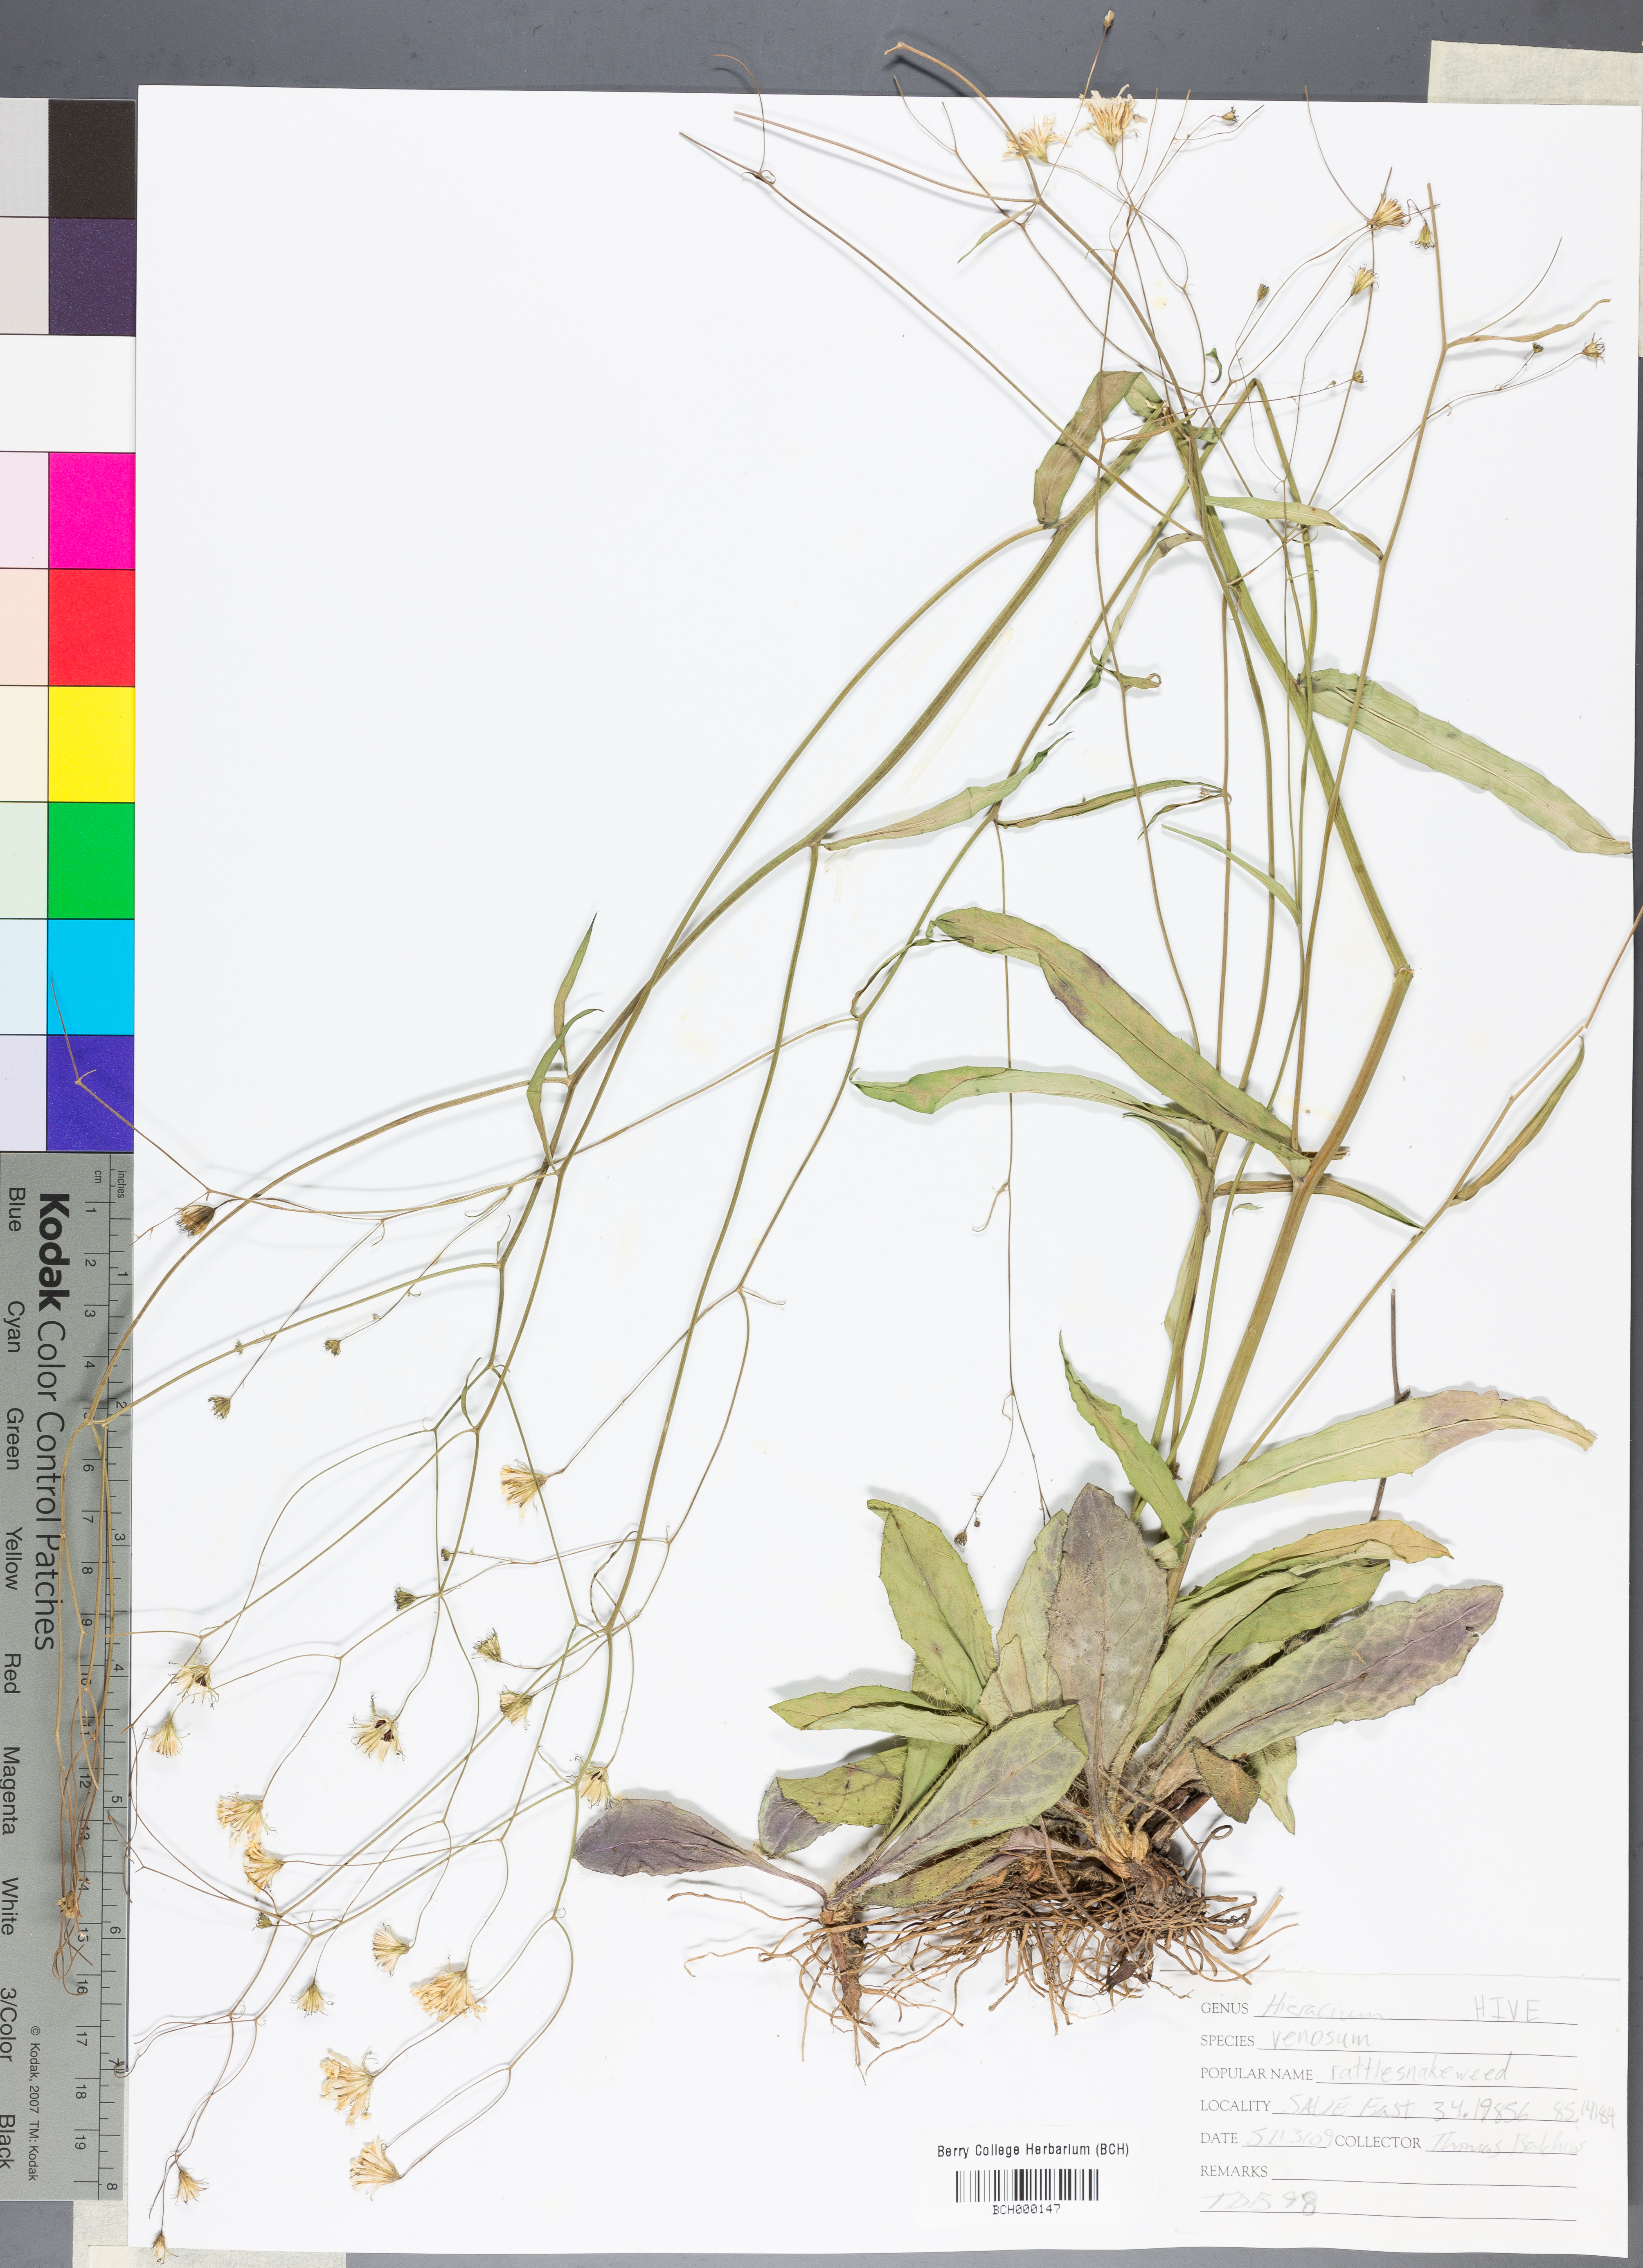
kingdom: Plantae
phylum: Tracheophyta
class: Magnoliopsida
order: Asterales
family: Asteraceae
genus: Hieracium
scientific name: Hieracium venosum
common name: Rattlesnake hawkweed
